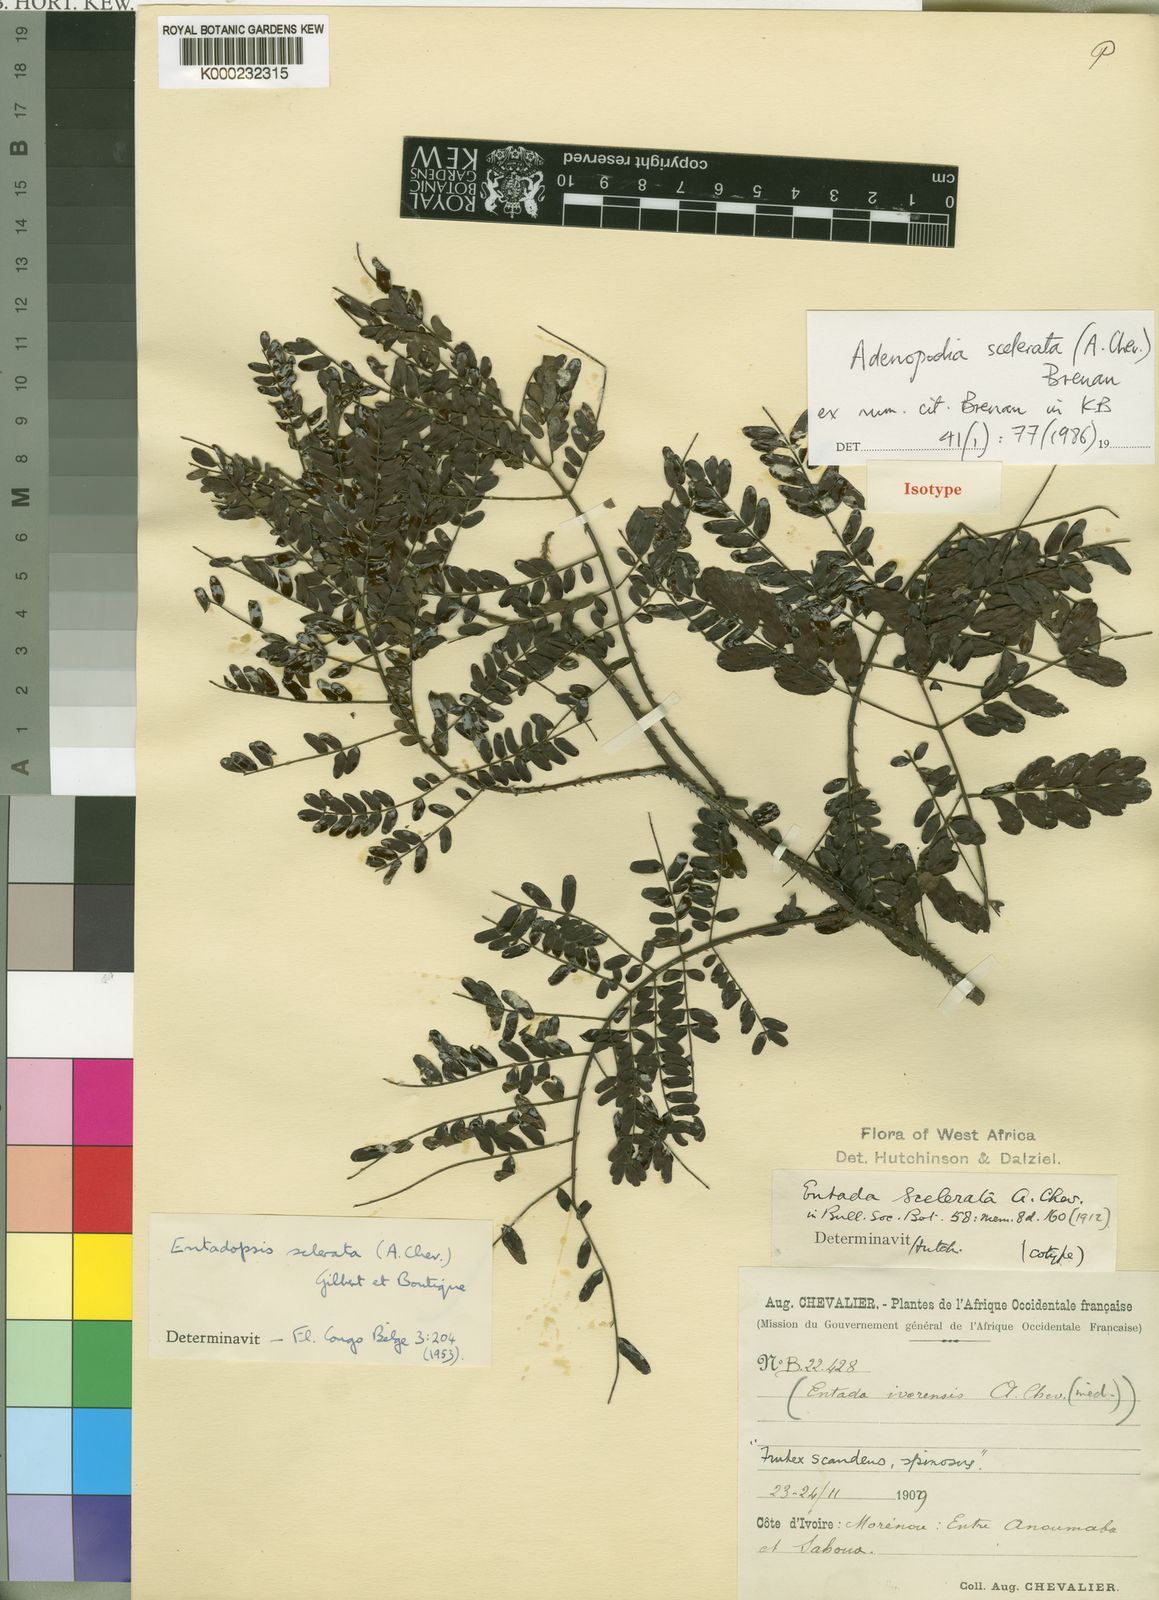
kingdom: Plantae
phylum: Tracheophyta
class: Magnoliopsida
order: Fabales
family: Fabaceae
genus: Adenopodia
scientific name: Adenopodia scelerata
